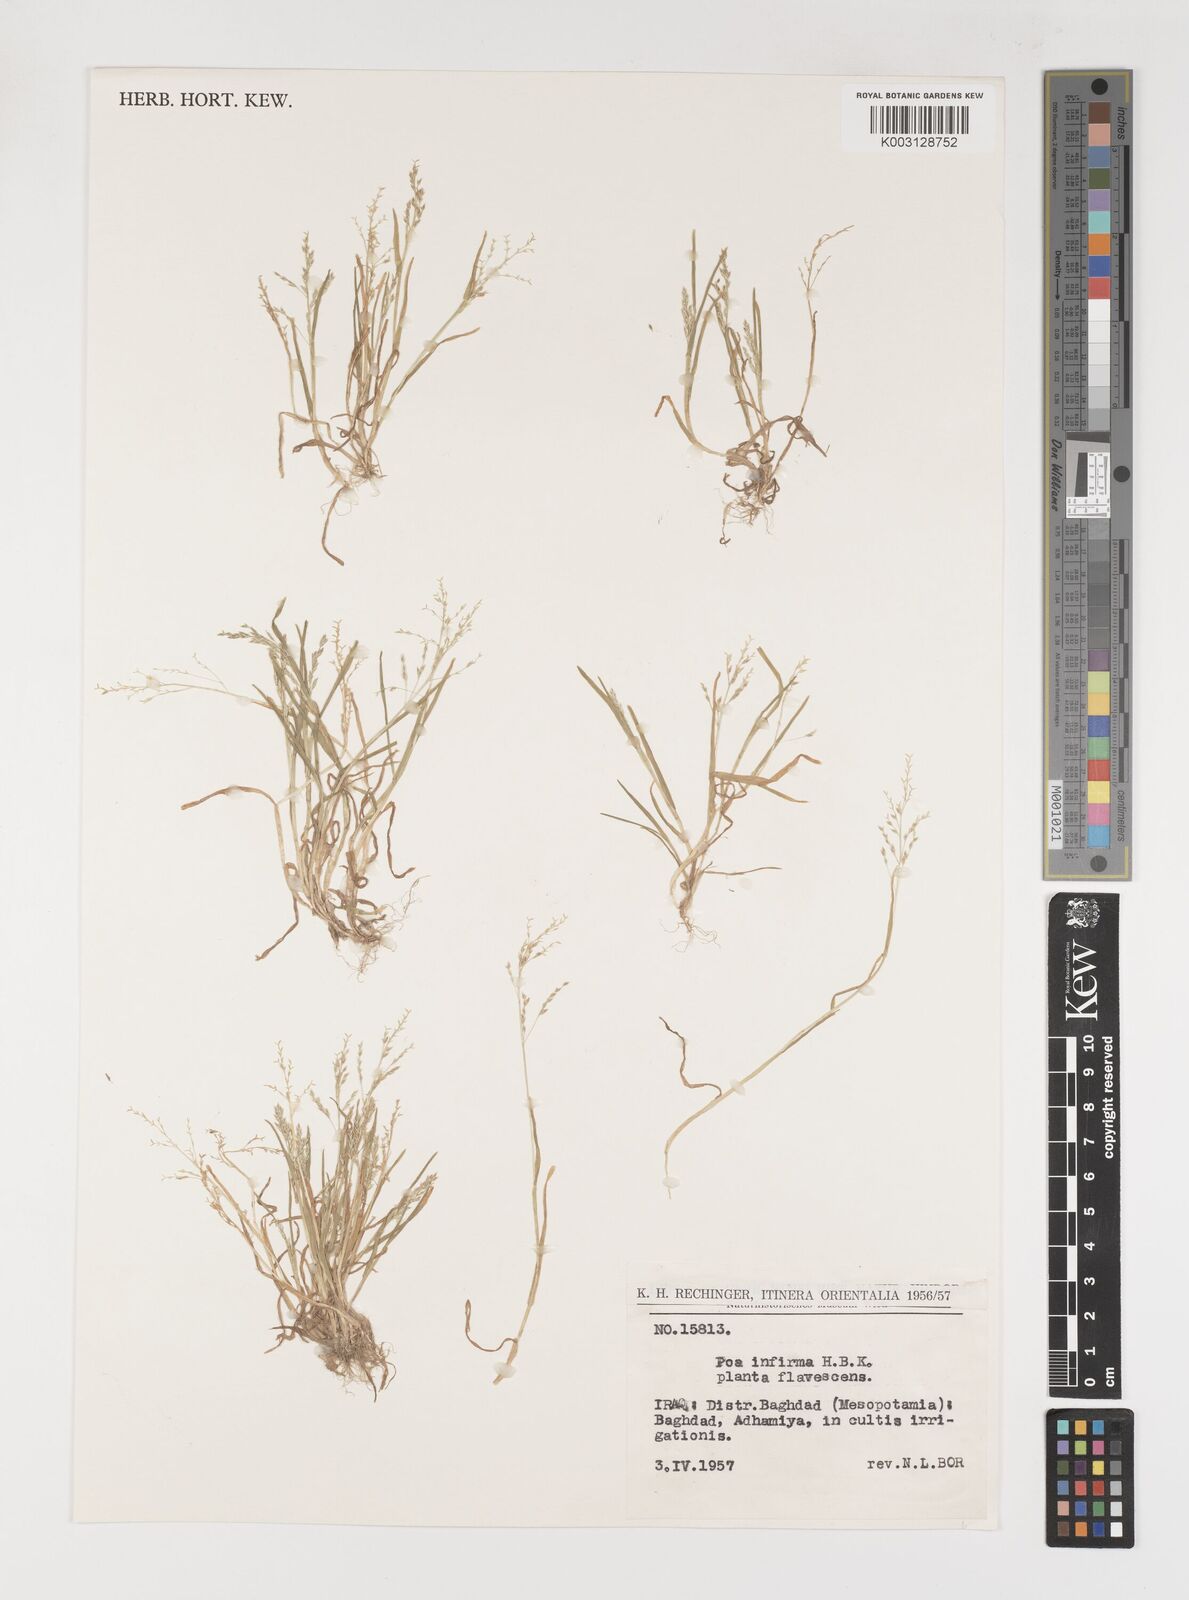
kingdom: Plantae
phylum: Tracheophyta
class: Liliopsida
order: Poales
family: Poaceae
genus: Poa
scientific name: Poa infirma
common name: Weak bluegrass
